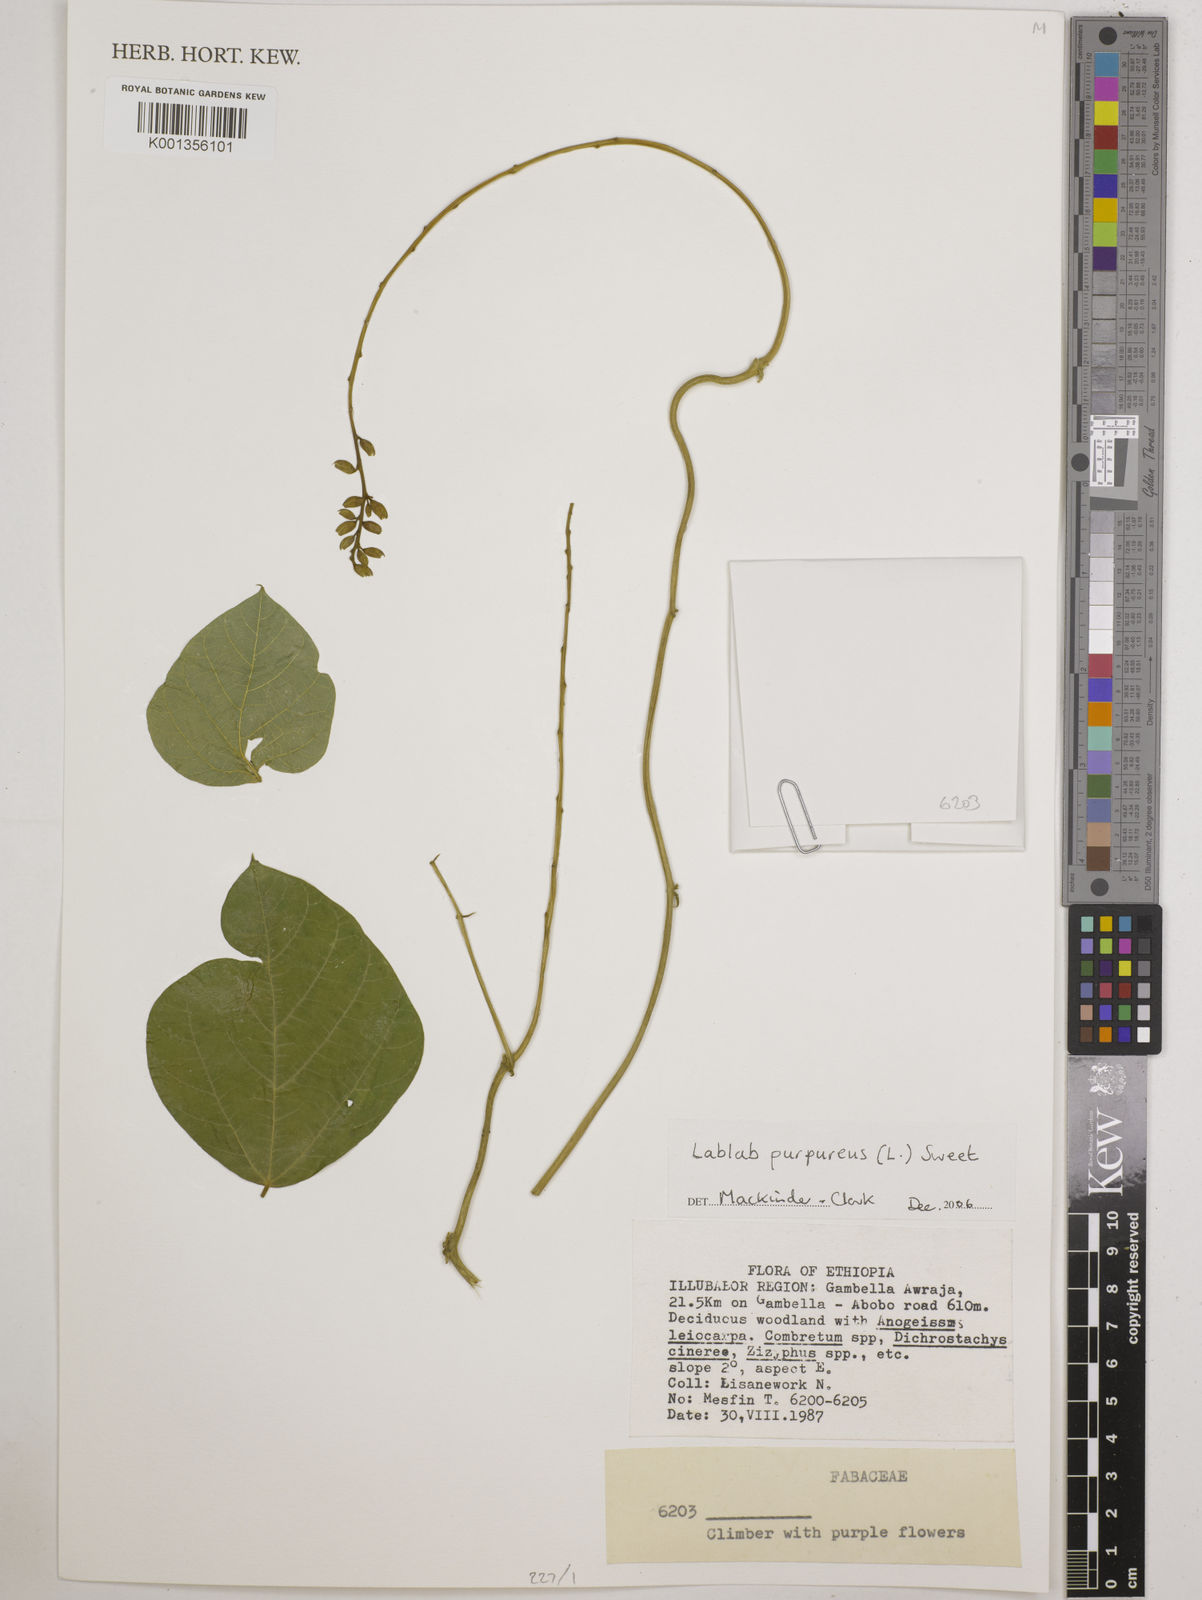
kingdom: Plantae
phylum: Tracheophyta
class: Magnoliopsida
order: Fabales
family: Fabaceae
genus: Lablab
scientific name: Lablab purpureus
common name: Lablab-bean
